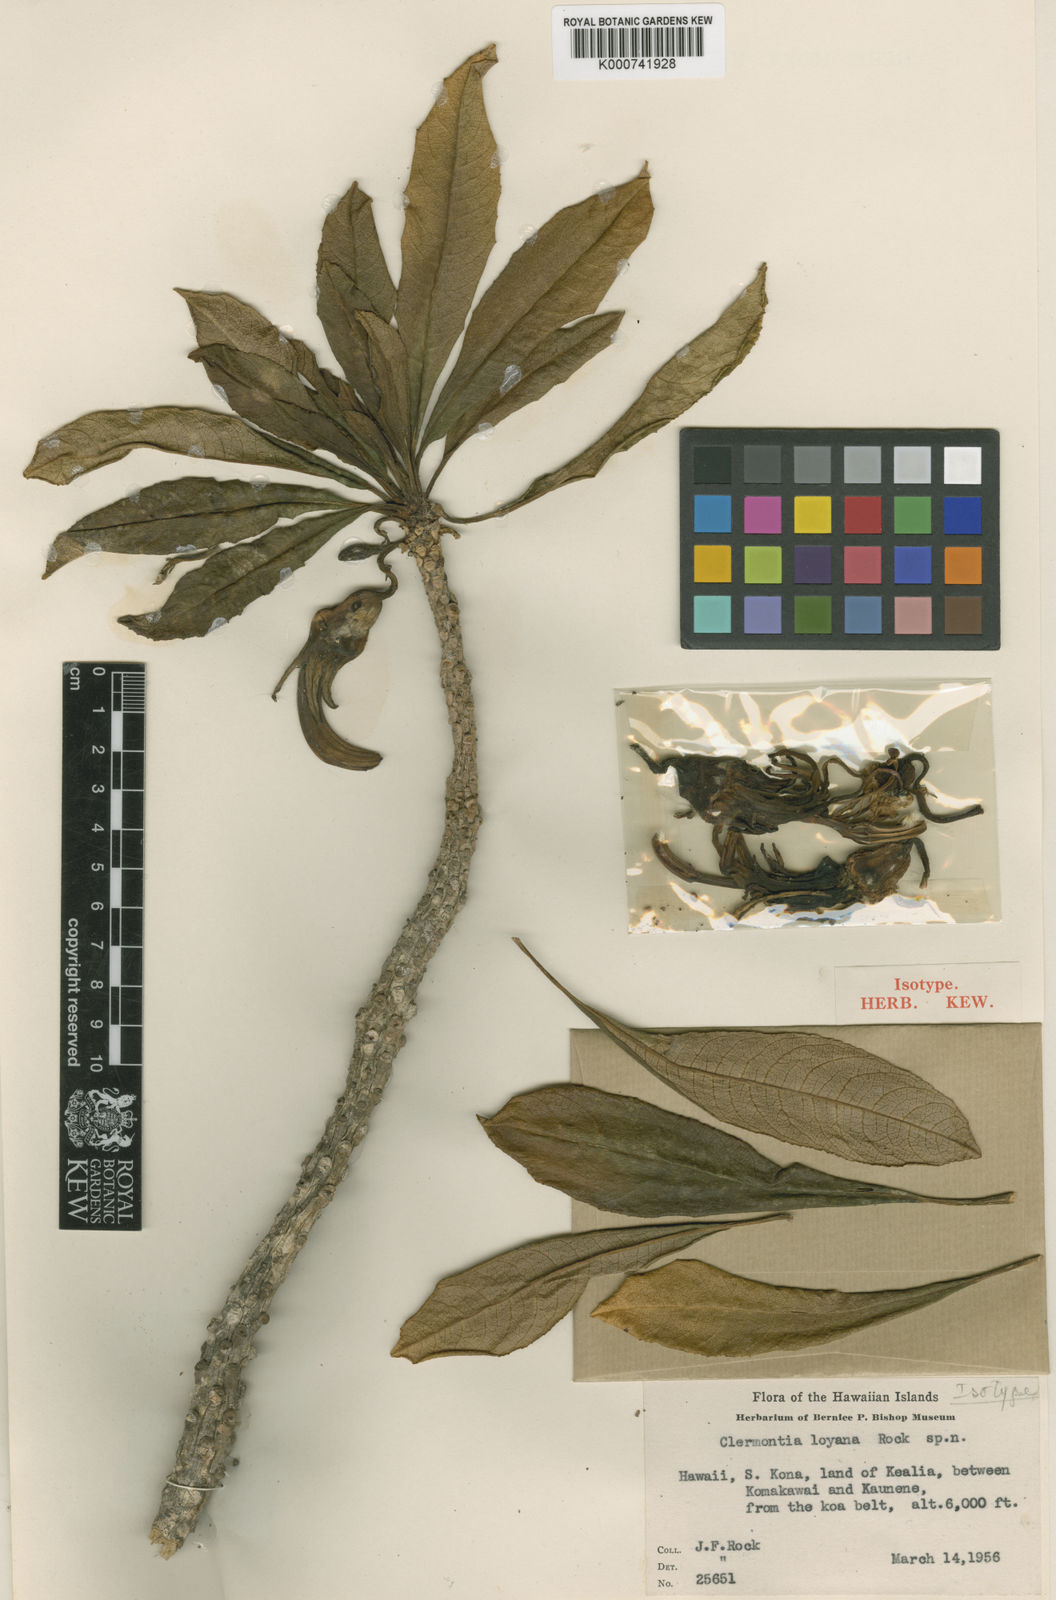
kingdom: Plantae
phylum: Tracheophyta
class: Magnoliopsida
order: Asterales
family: Campanulaceae
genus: Clermontia
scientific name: Clermontia clermontioides
